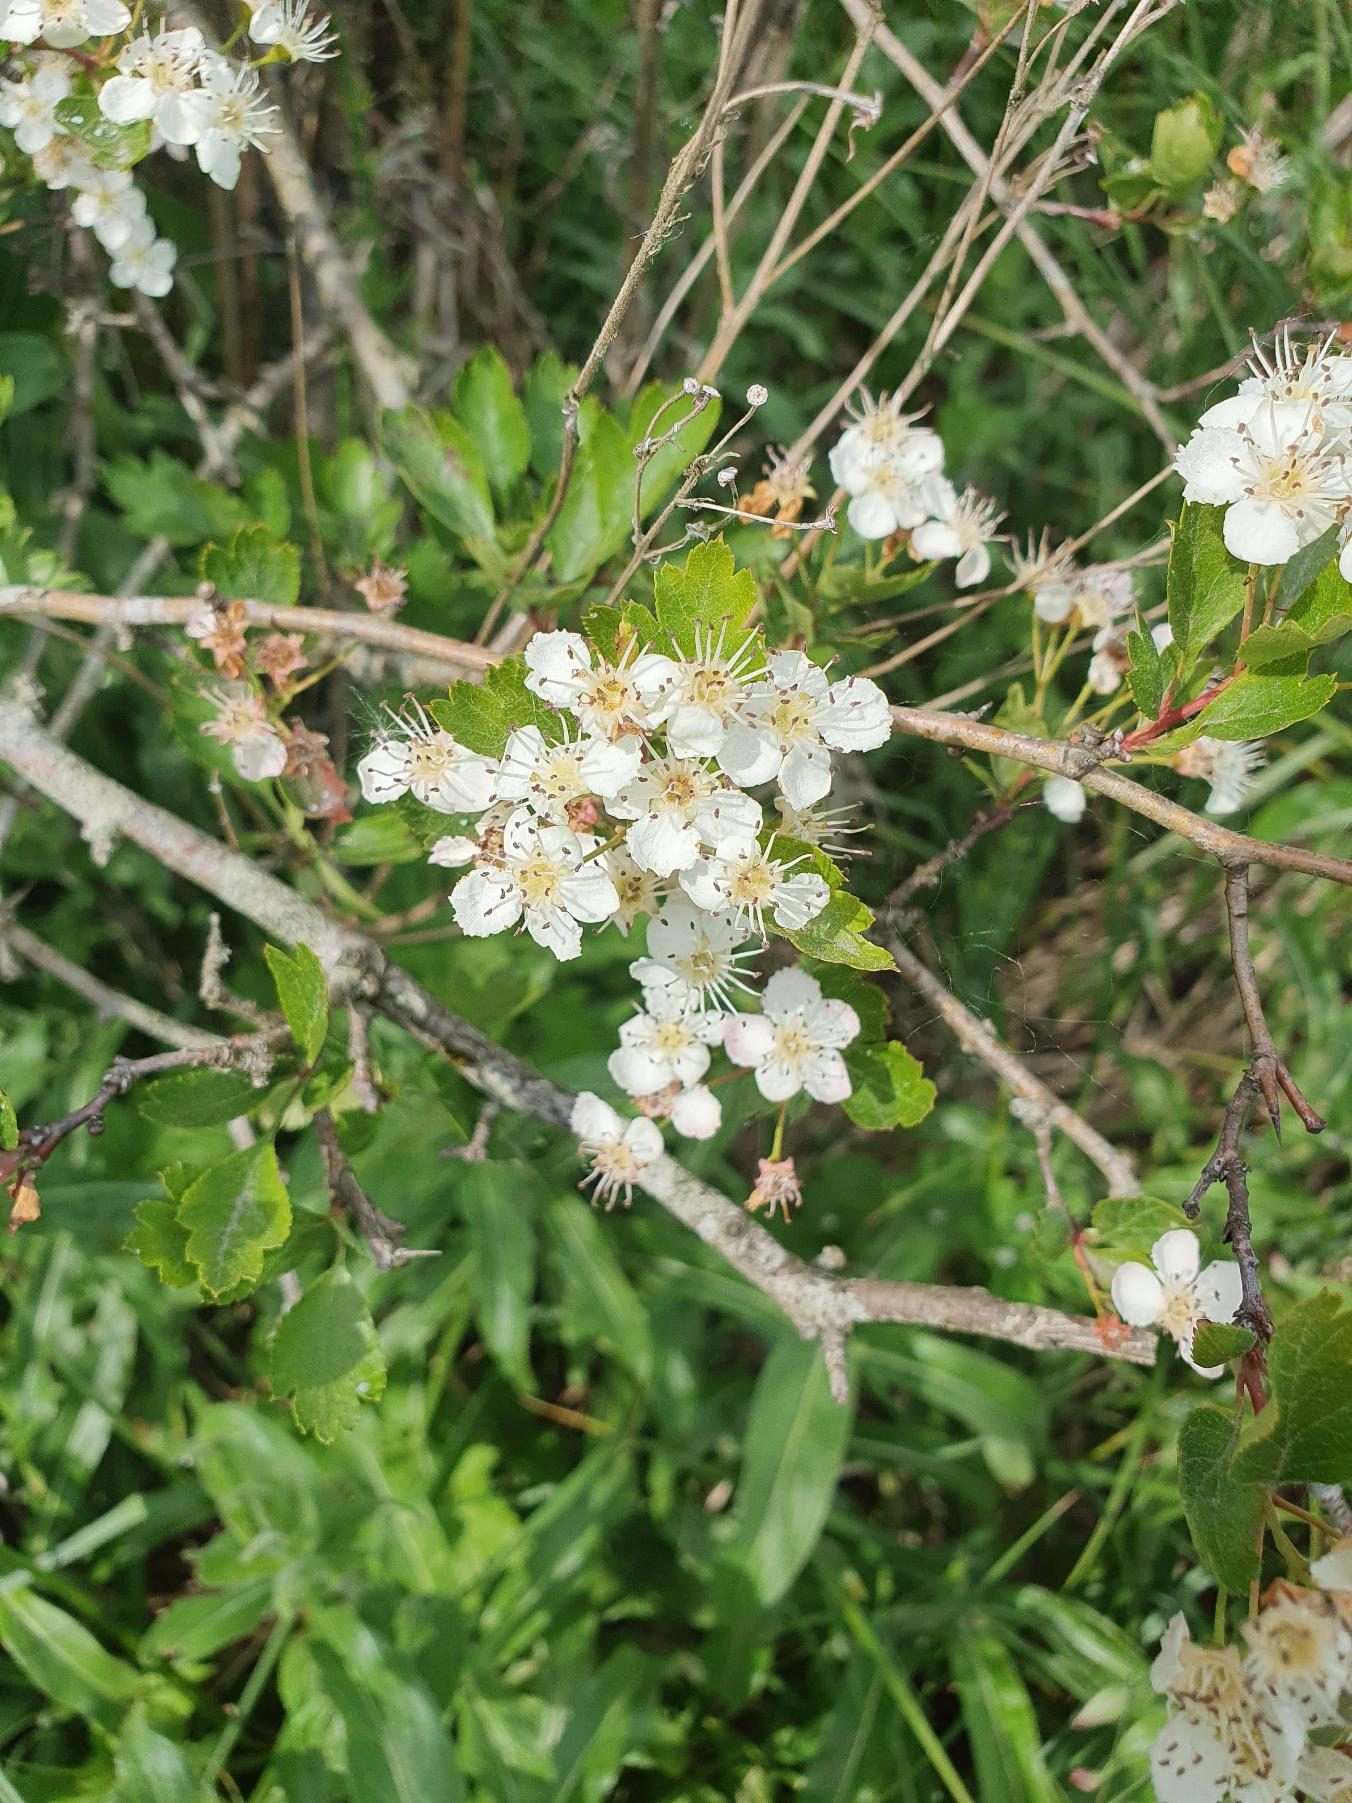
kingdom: Plantae
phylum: Tracheophyta
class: Magnoliopsida
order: Rosales
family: Rosaceae
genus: Crataegus
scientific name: Crataegus monogyna
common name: Engriflet hvidtjørn
